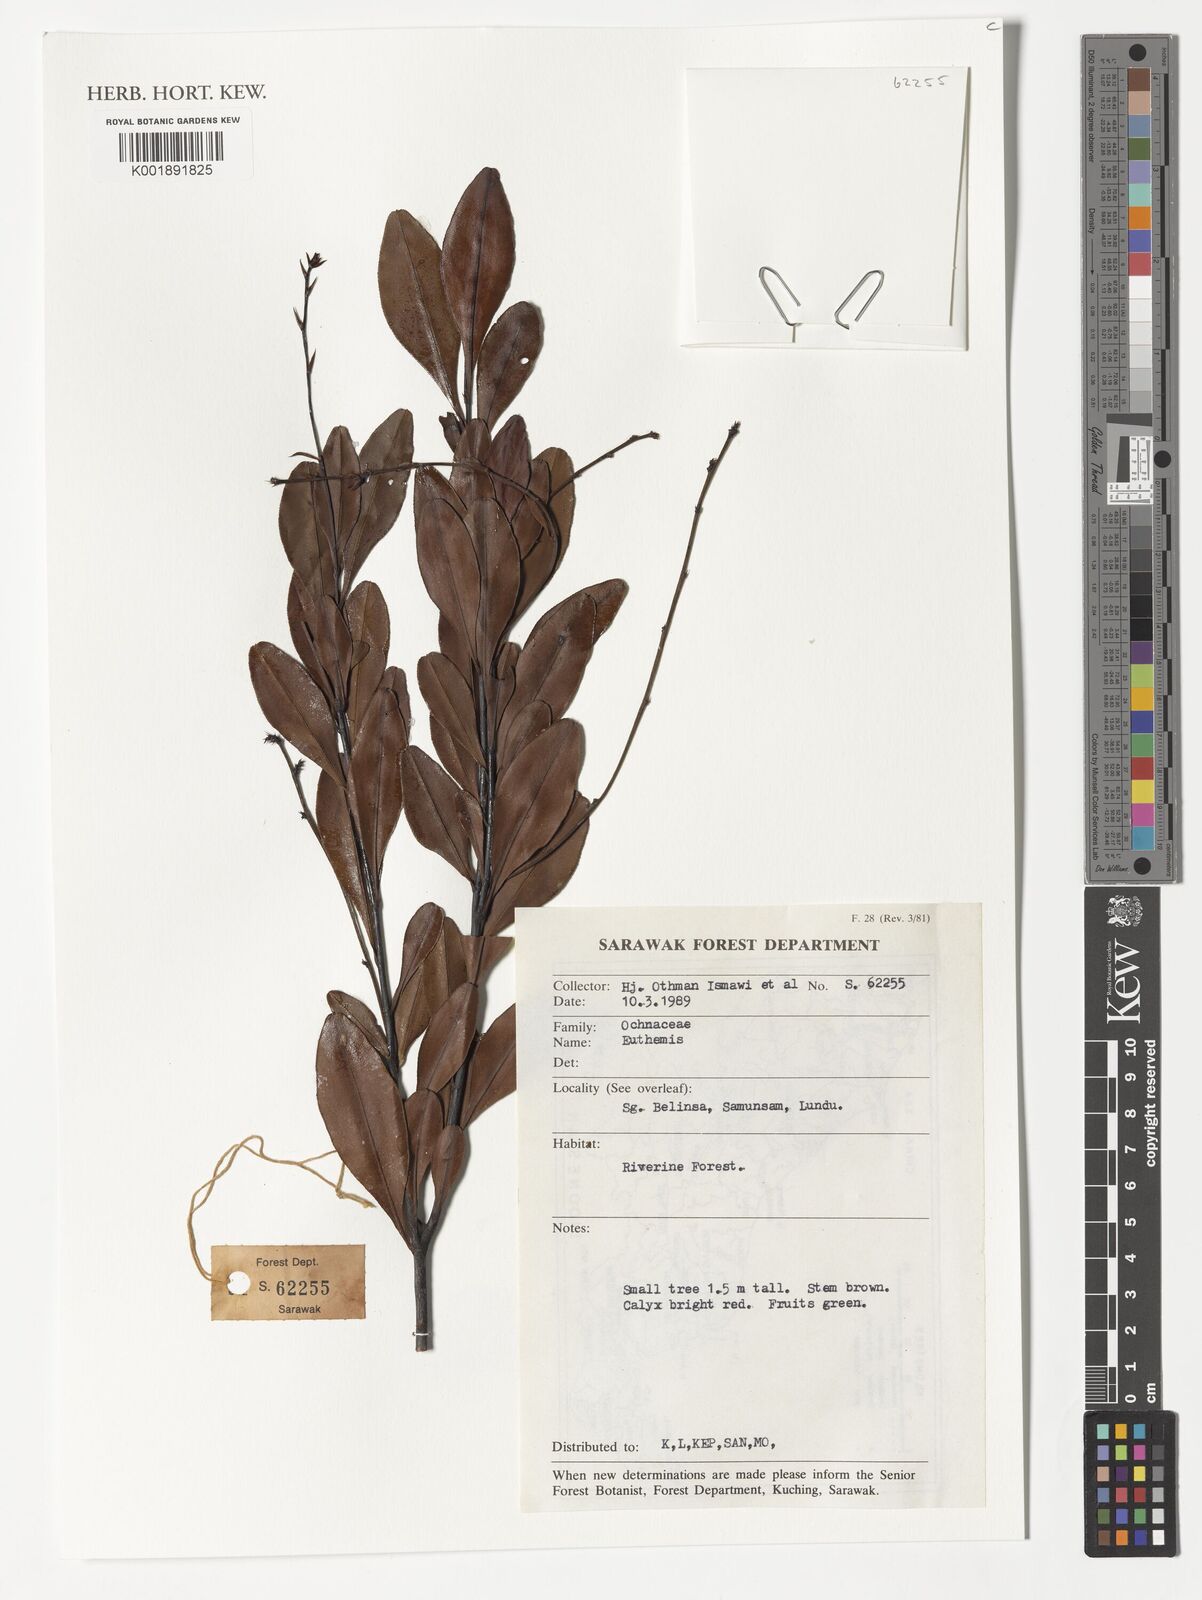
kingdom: Plantae
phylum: Tracheophyta
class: Magnoliopsida
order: Malpighiales
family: Ochnaceae
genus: Euthemis
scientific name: Euthemis
